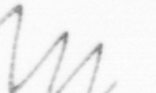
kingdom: Chromista
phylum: Ochrophyta
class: Bacillariophyceae
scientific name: Bacillariophyceae
